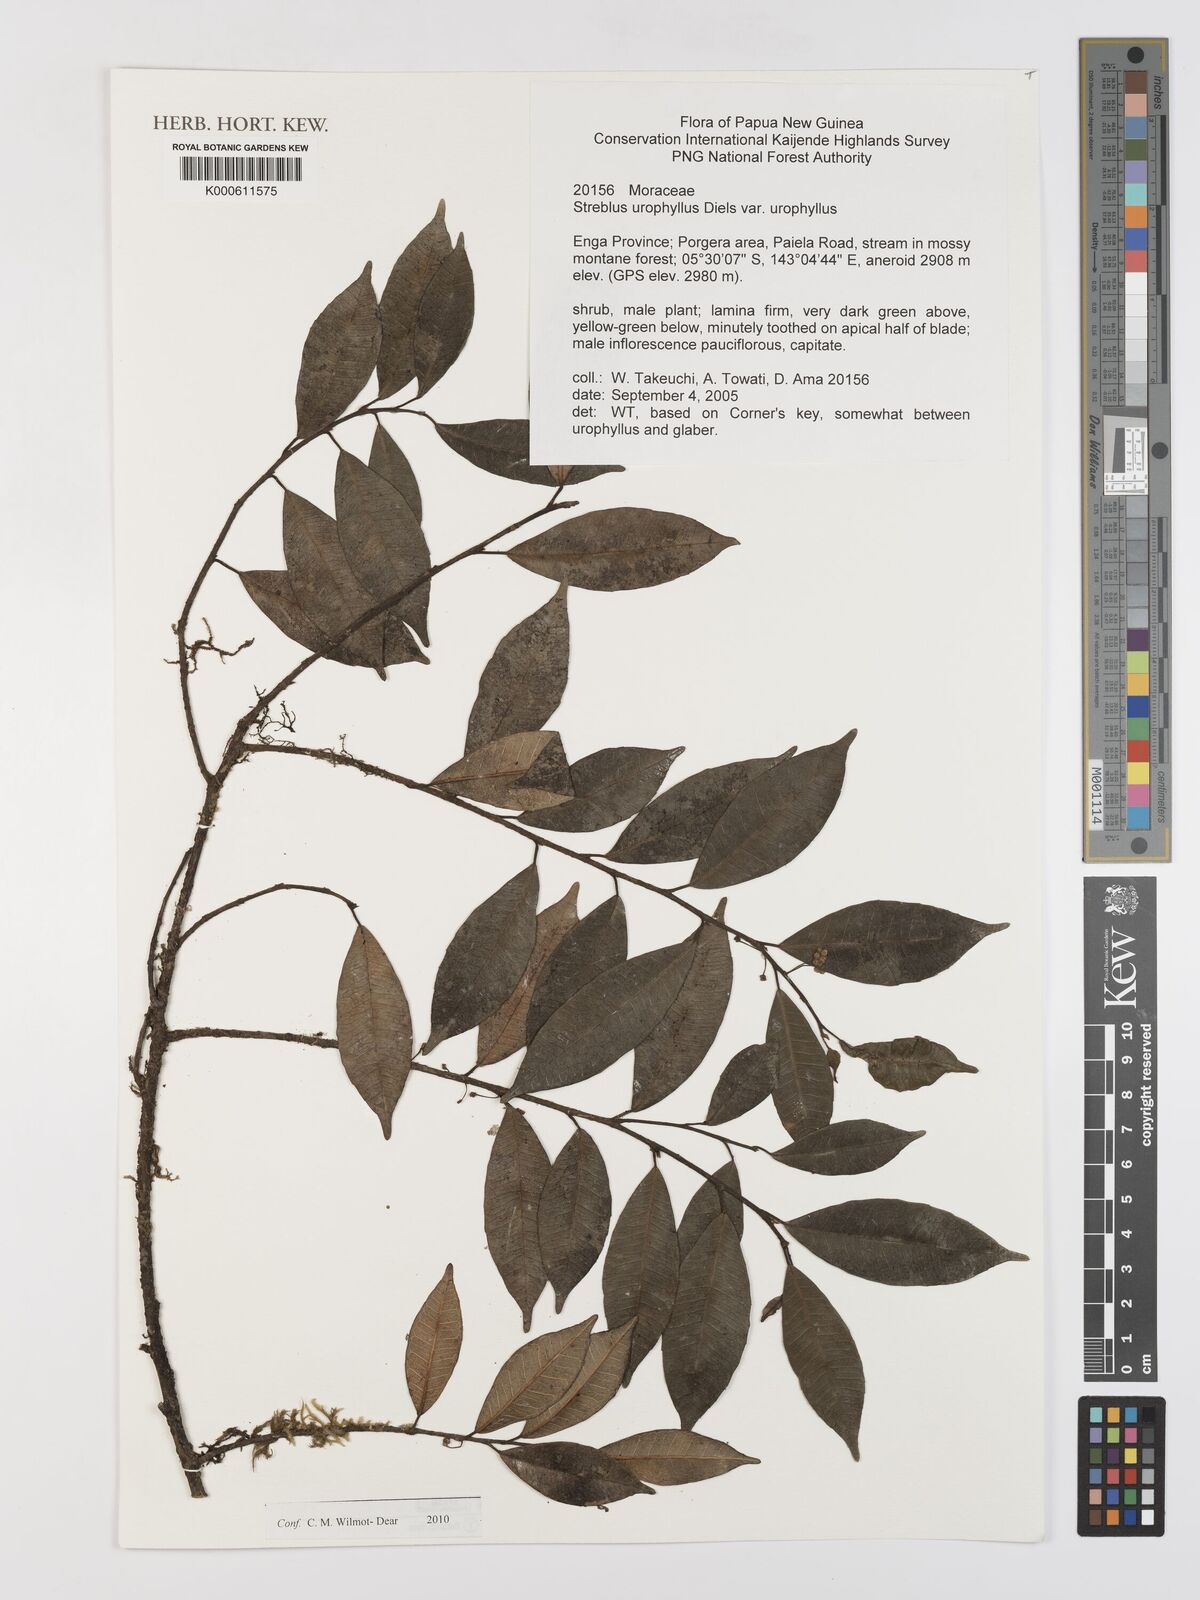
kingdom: Plantae
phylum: Tracheophyta
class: Magnoliopsida
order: Rosales
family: Moraceae
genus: Paratrophis
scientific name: Paratrophis glabra
